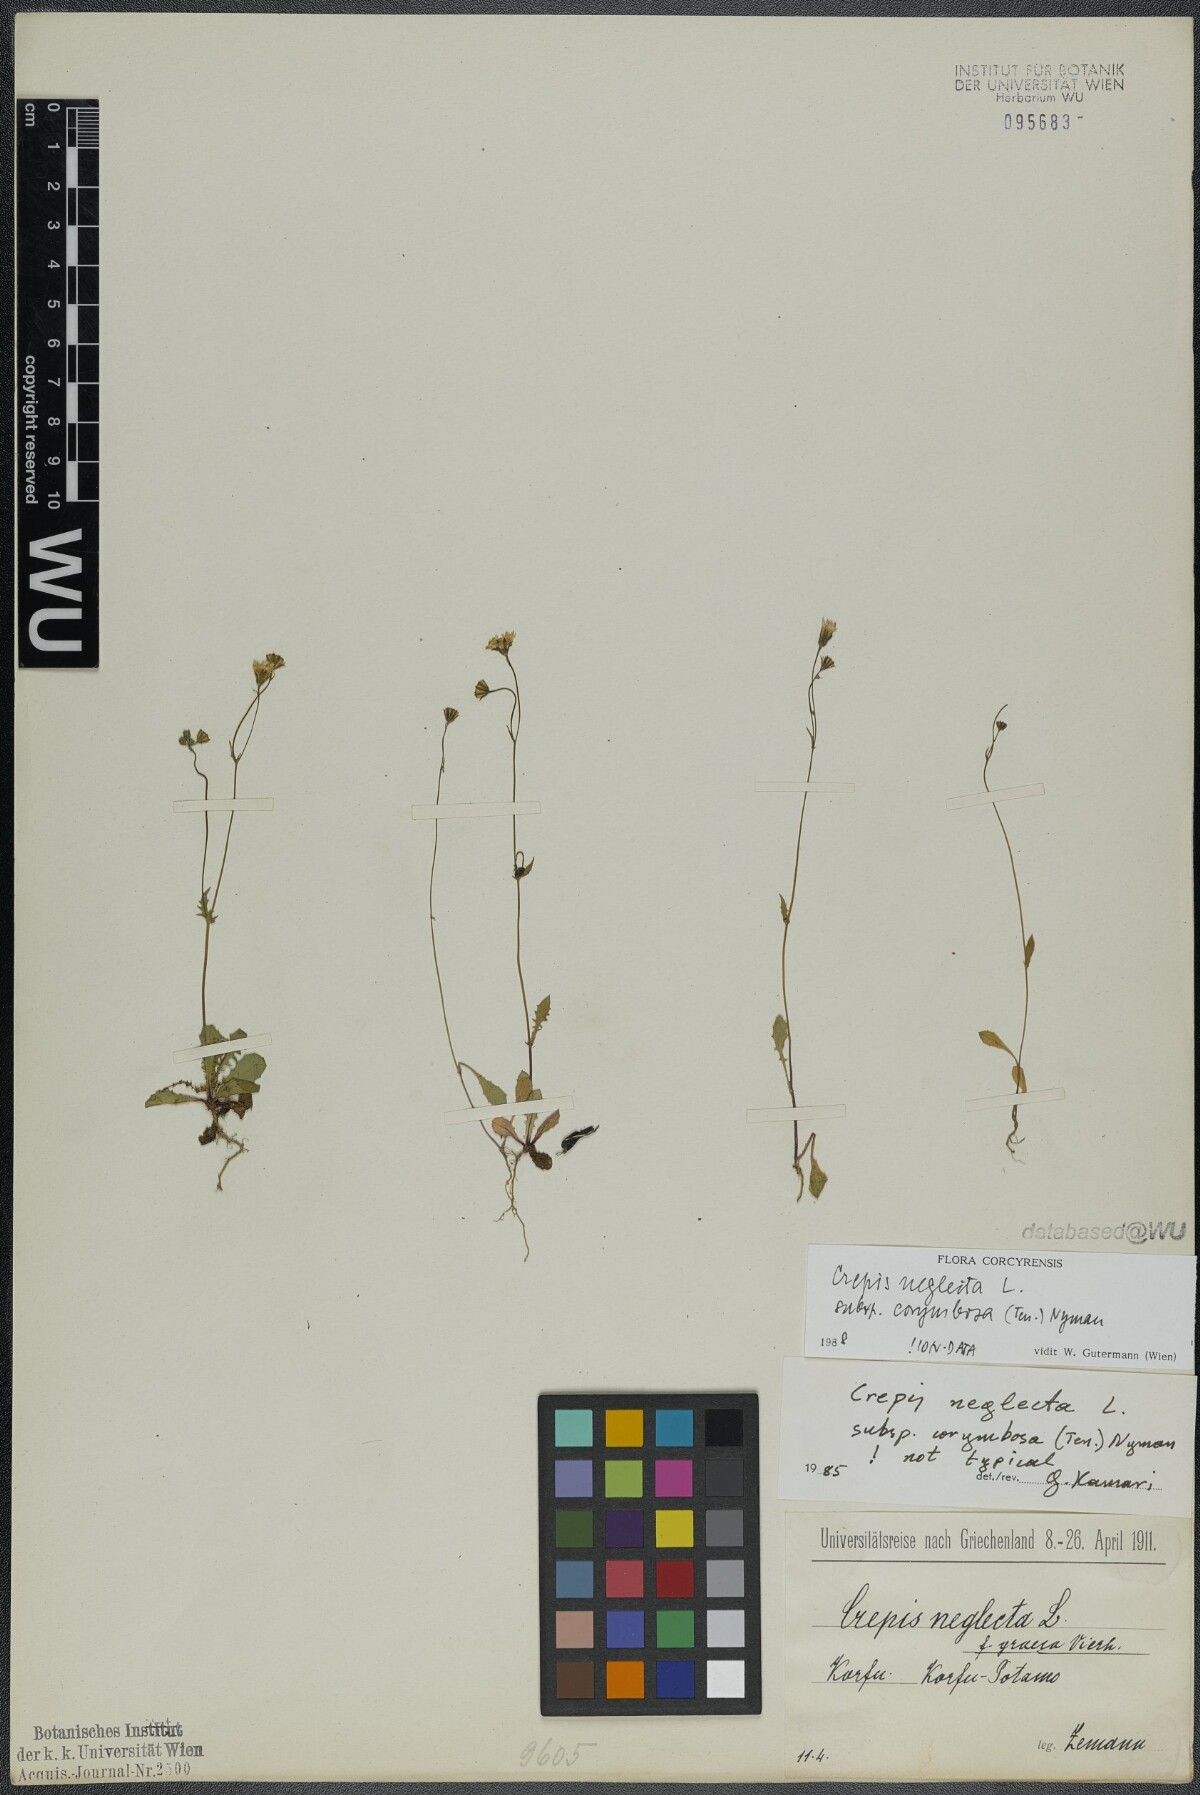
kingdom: Plantae
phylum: Tracheophyta
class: Magnoliopsida
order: Asterales
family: Asteraceae
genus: Crepis
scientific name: Crepis neglecta
